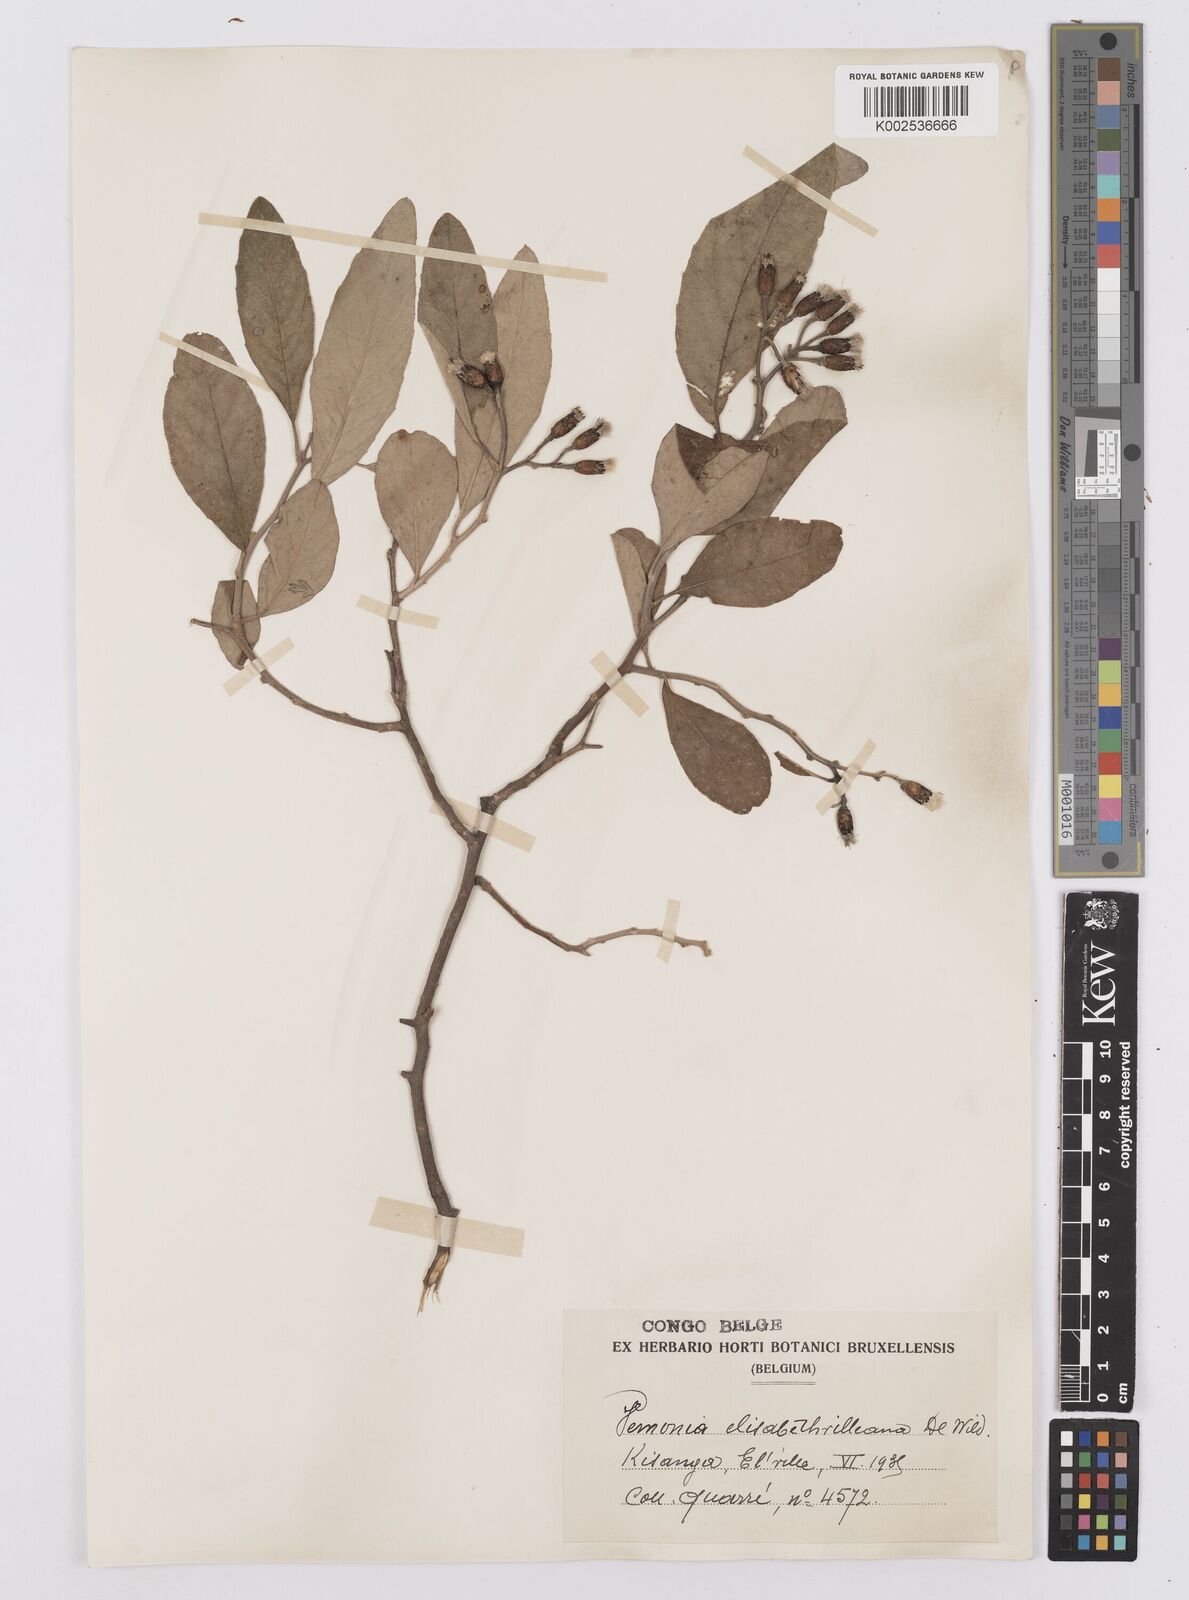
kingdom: Plantae
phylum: Tracheophyta
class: Magnoliopsida
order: Asterales
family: Asteraceae
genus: Gymnanthemum
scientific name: Gymnanthemum bellinghamii
